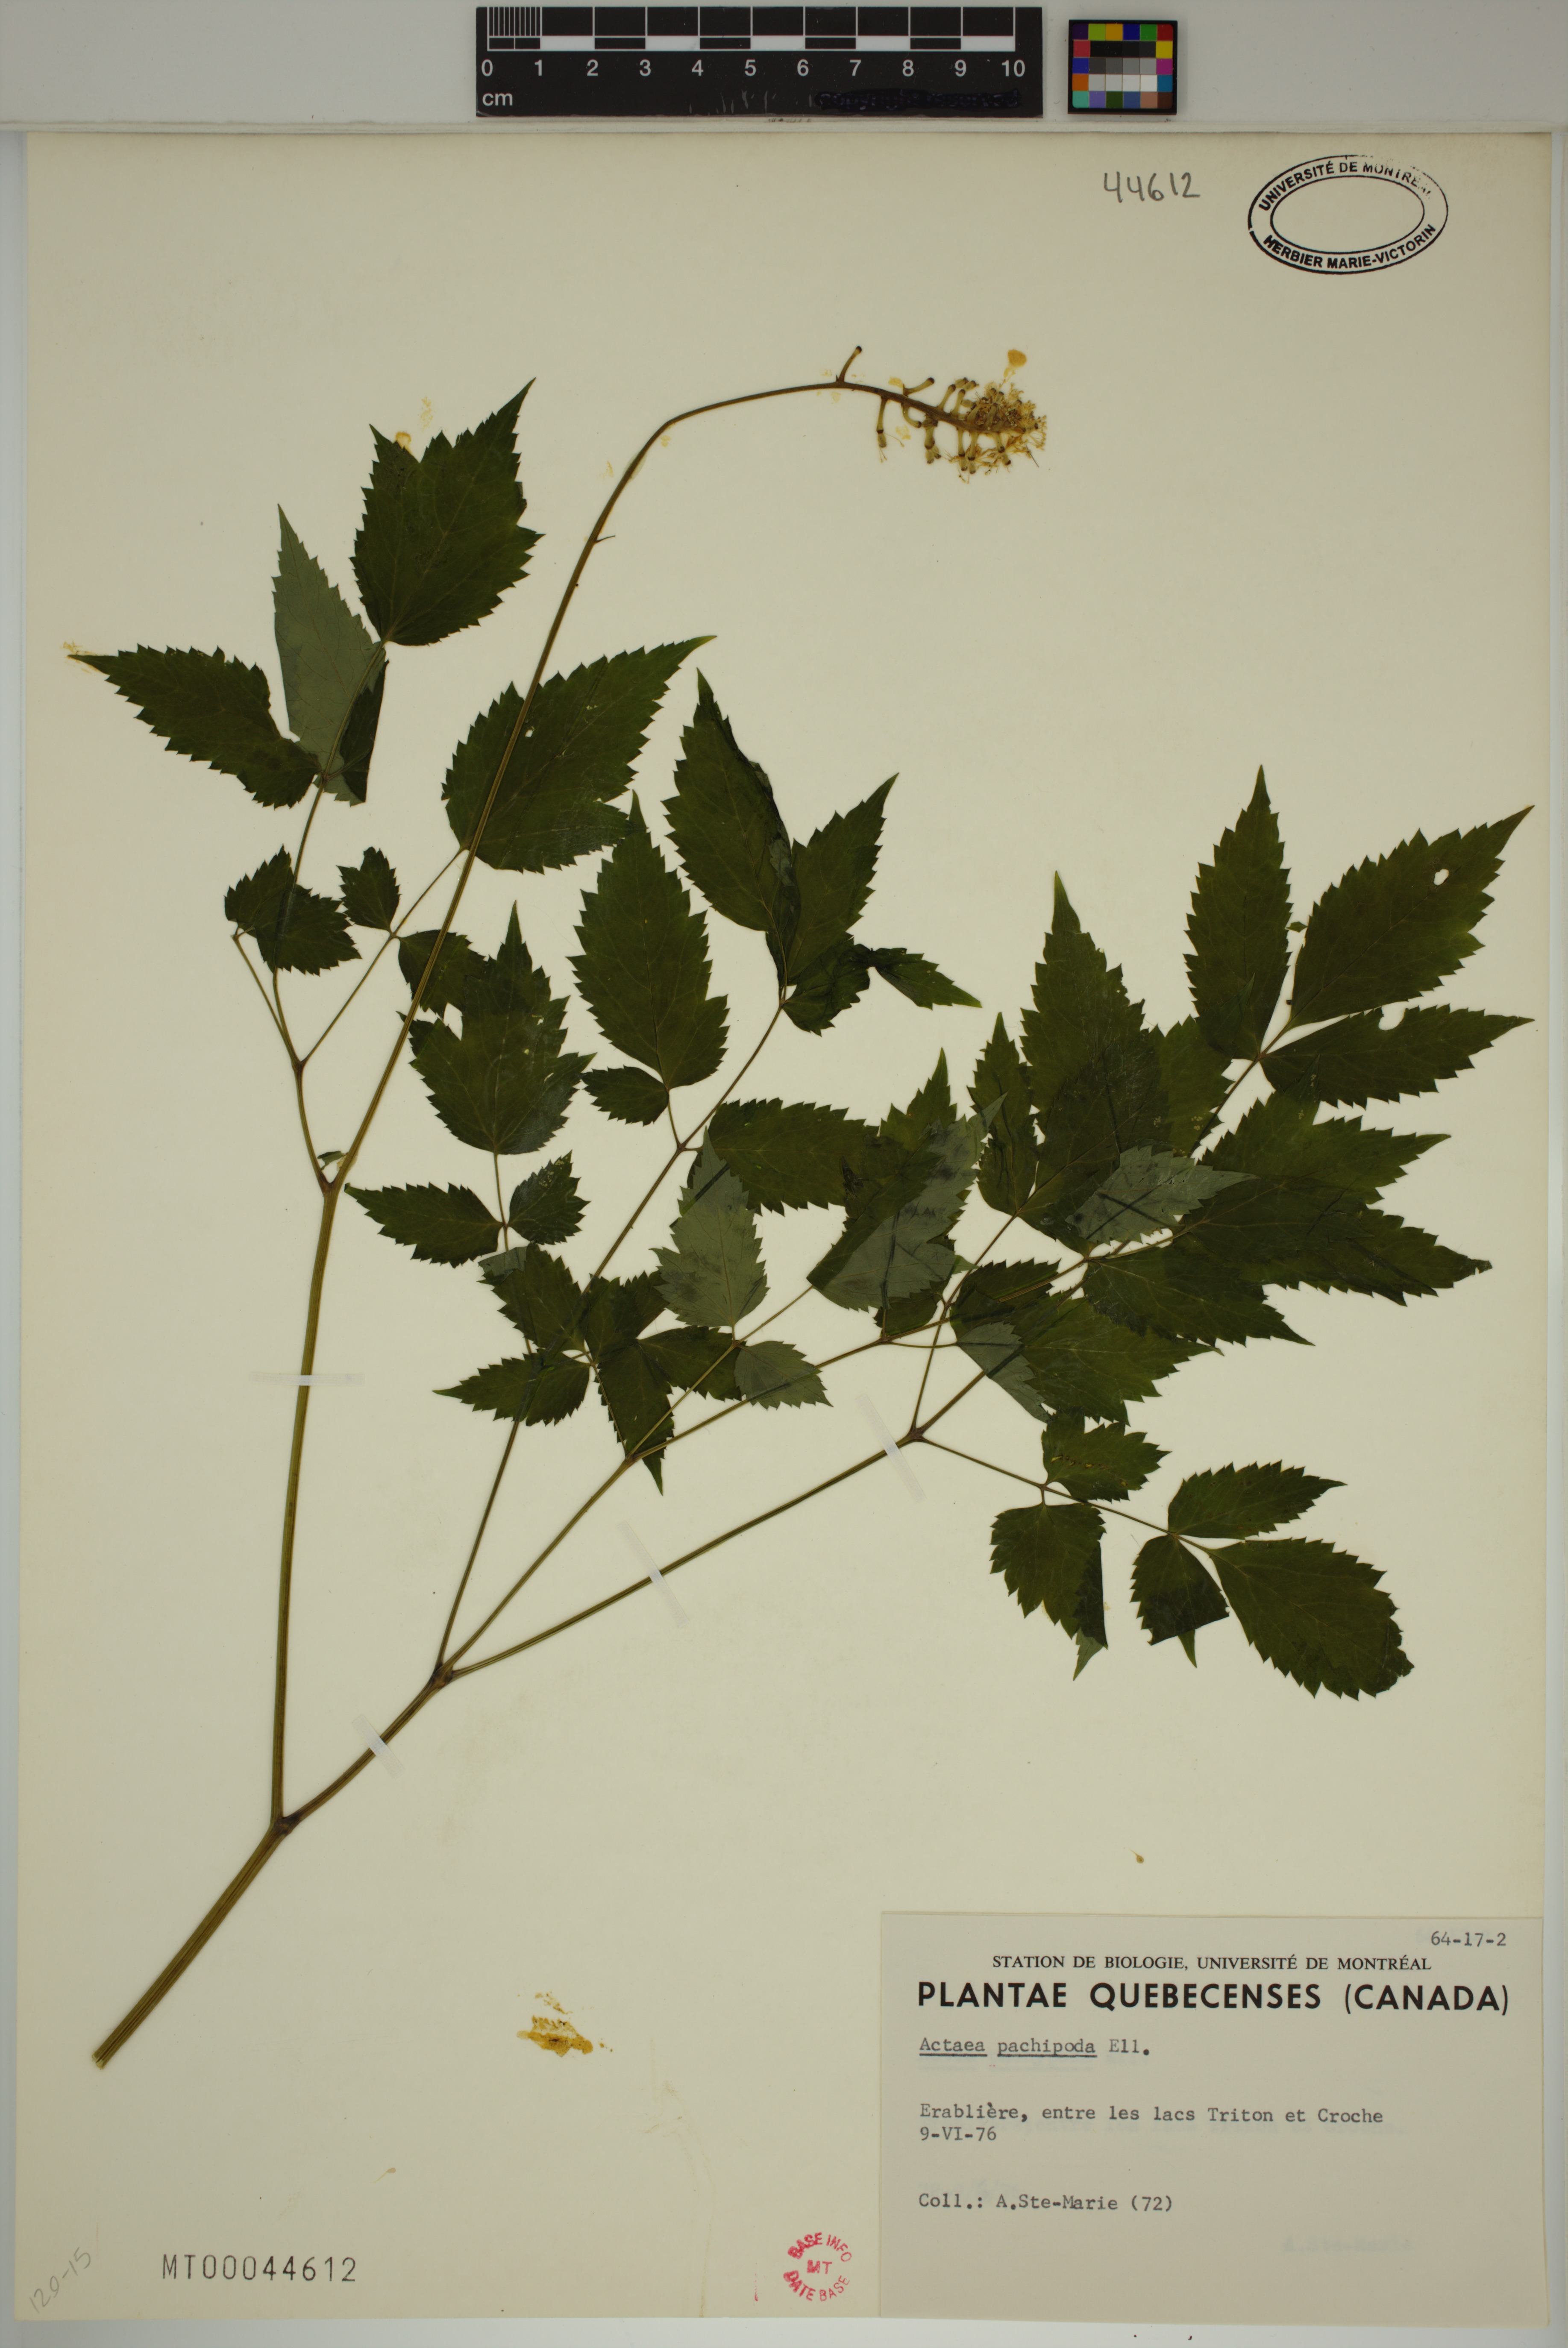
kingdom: Plantae
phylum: Tracheophyta
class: Magnoliopsida
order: Ranunculales
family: Ranunculaceae
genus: Actaea
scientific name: Actaea pachypoda
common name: Doll's-eyes
